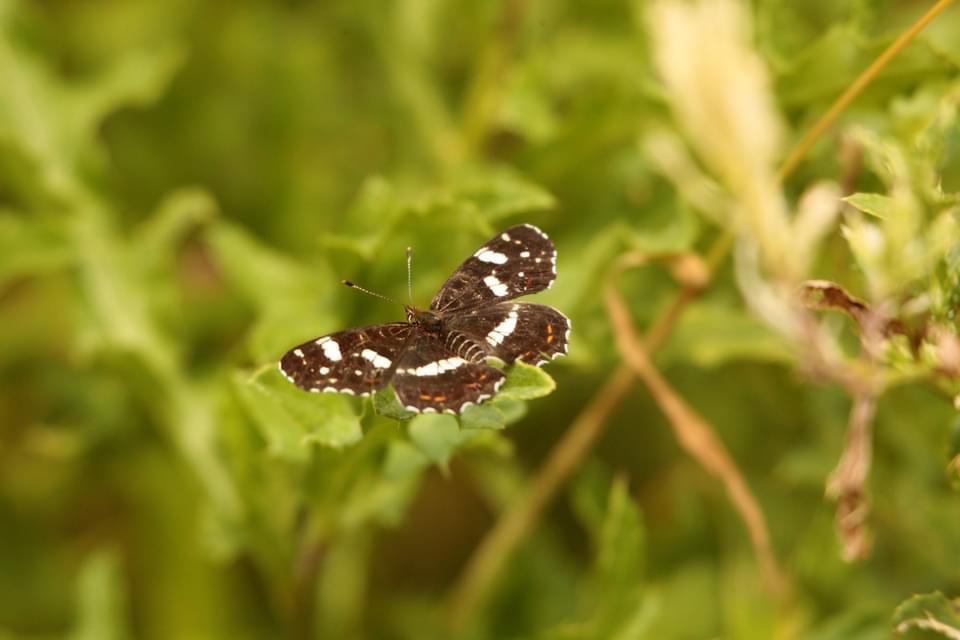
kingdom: Animalia
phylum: Arthropoda
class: Insecta
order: Lepidoptera
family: Nymphalidae
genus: Araschnia
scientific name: Araschnia levana
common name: Nældesommerfugl
